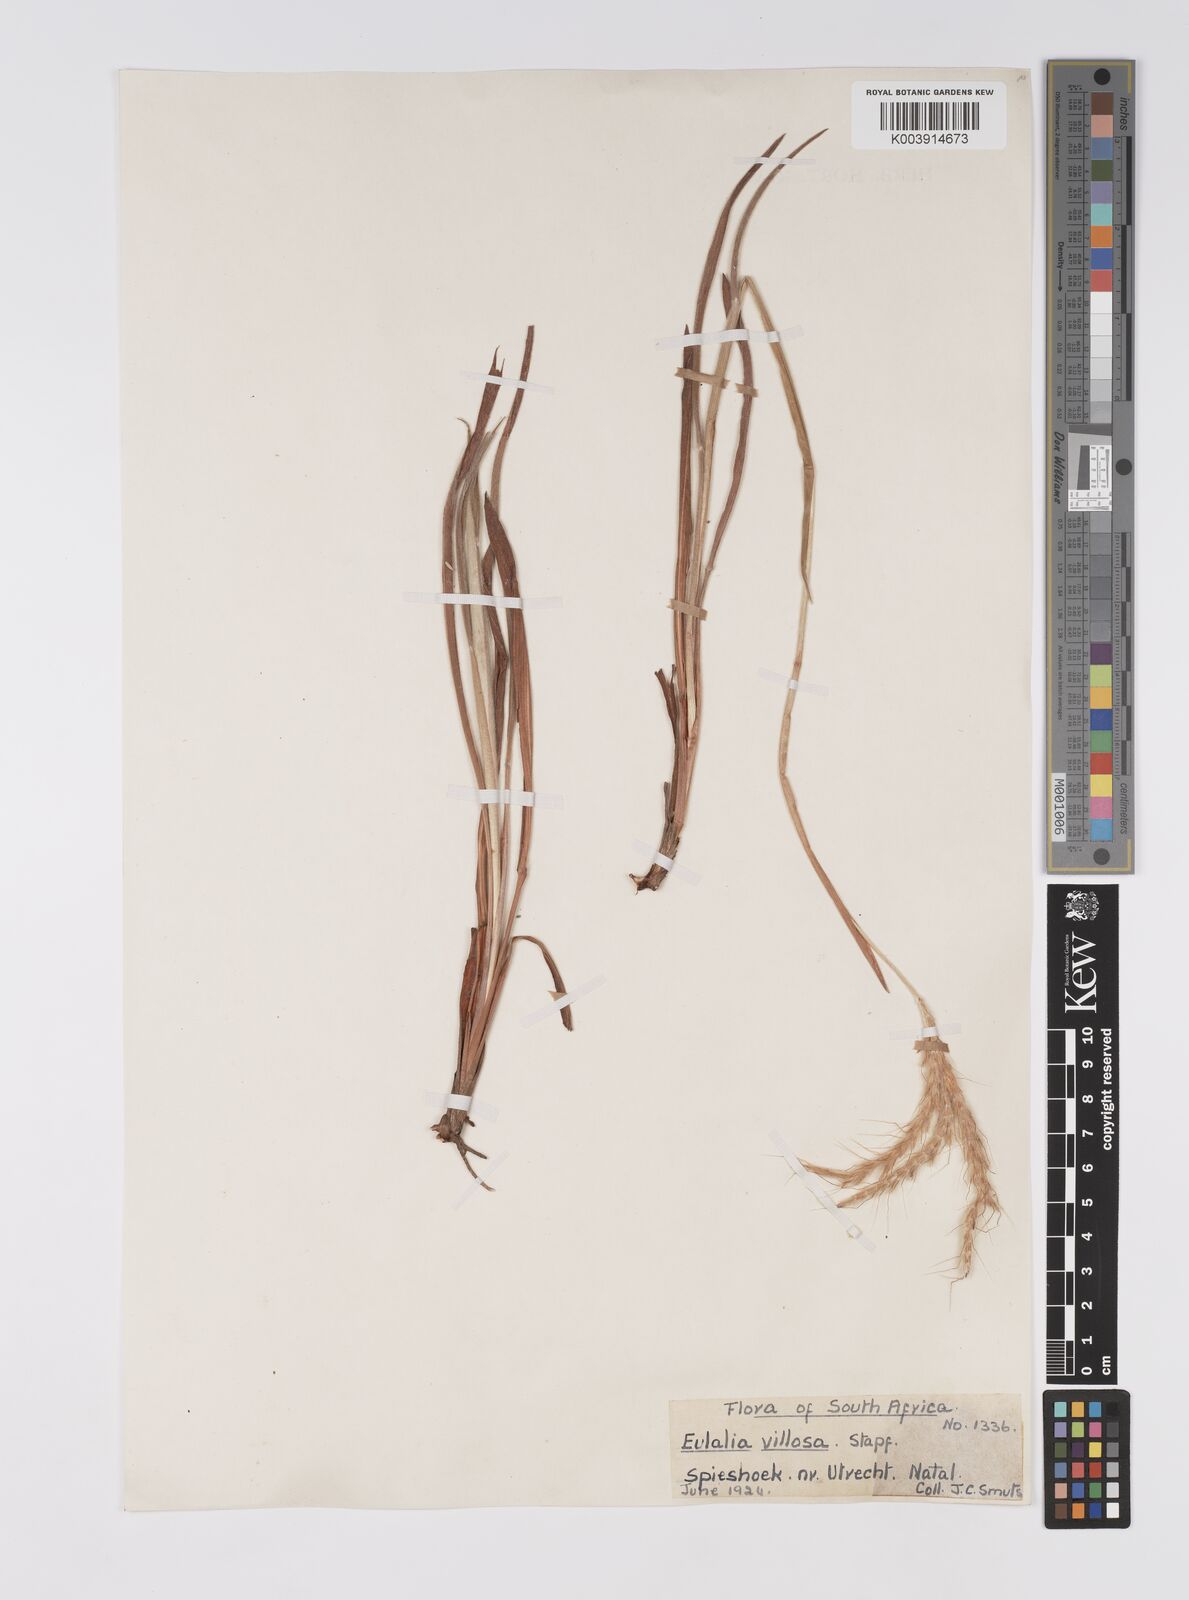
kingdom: Plantae
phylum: Tracheophyta
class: Liliopsida
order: Poales
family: Poaceae
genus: Eulalia
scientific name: Eulalia villosa
